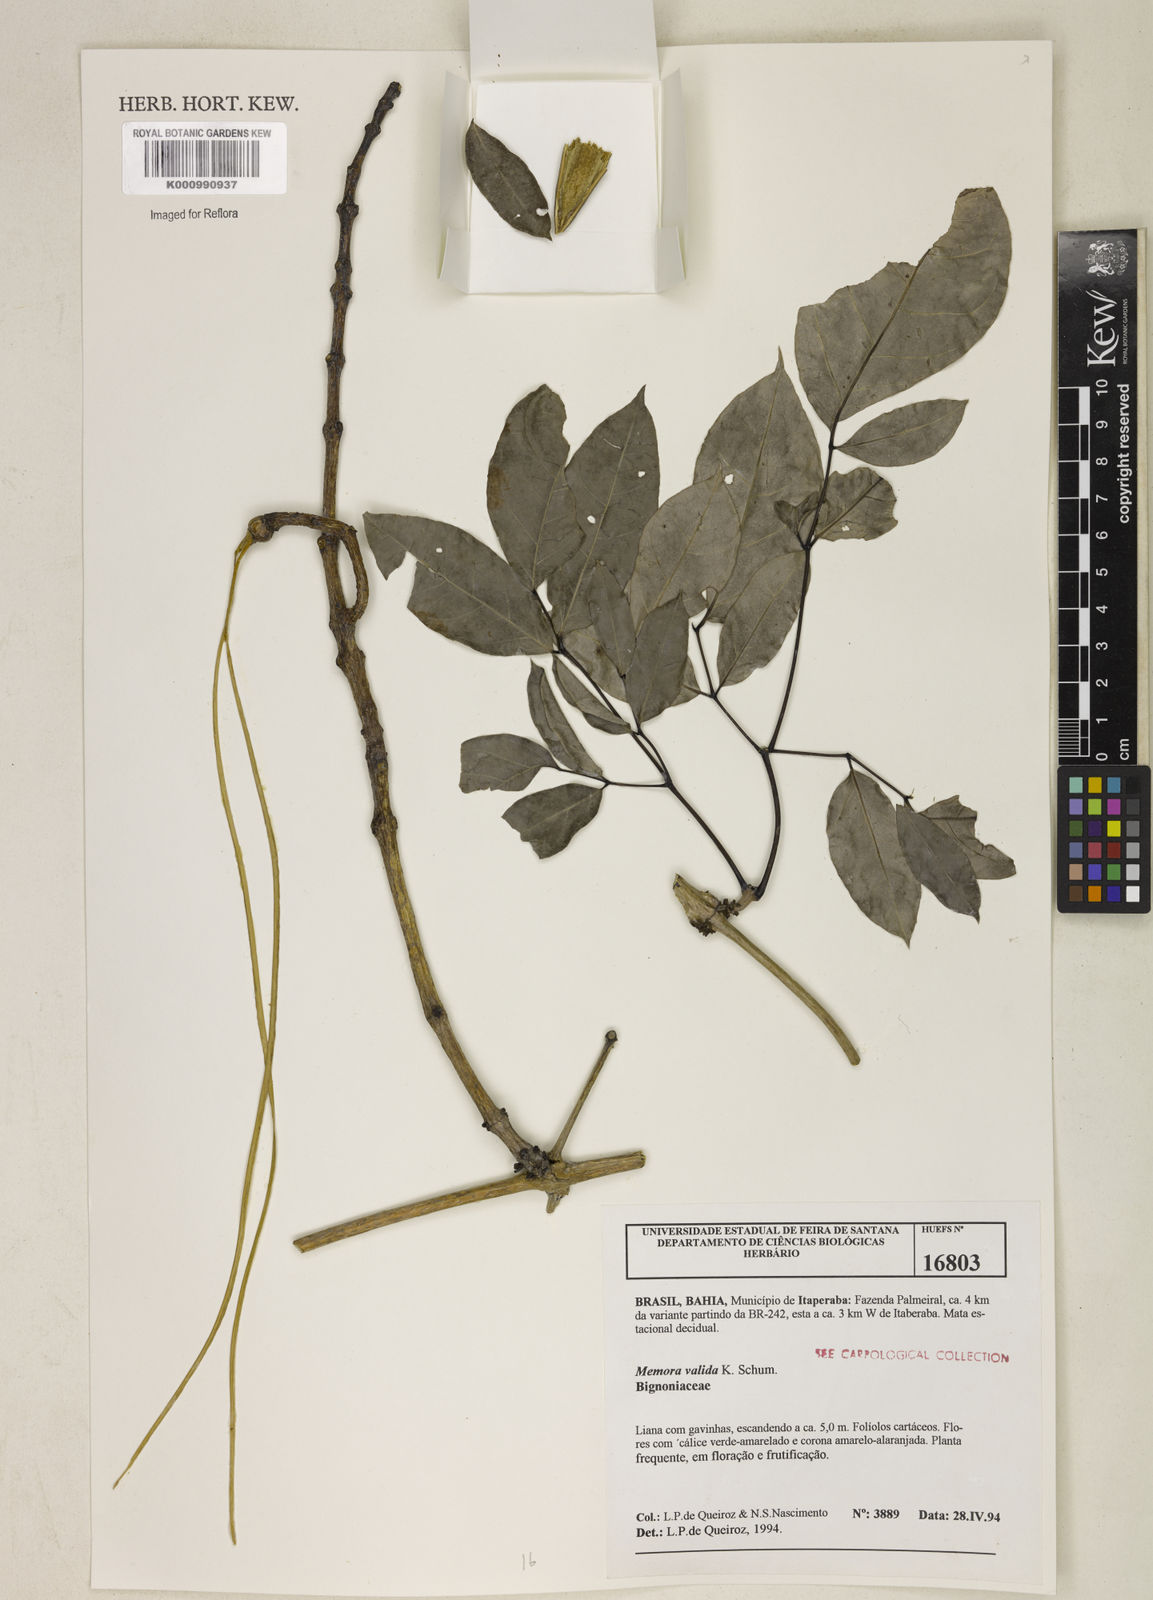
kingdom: Plantae
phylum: Tracheophyta
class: Magnoliopsida
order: Lamiales
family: Bignoniaceae
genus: Adenocalymma
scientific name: Adenocalymma validum
